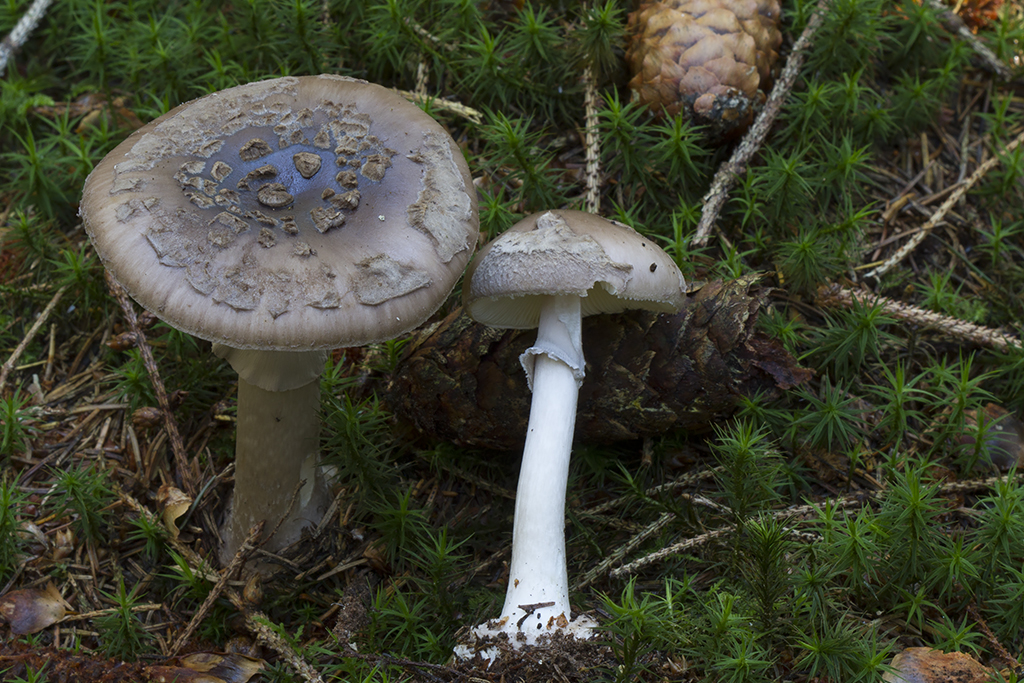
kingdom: Fungi
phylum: Basidiomycota
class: Agaricomycetes
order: Agaricales
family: Amanitaceae
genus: Amanita
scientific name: Amanita porphyria
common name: porfyr-fluesvamp
